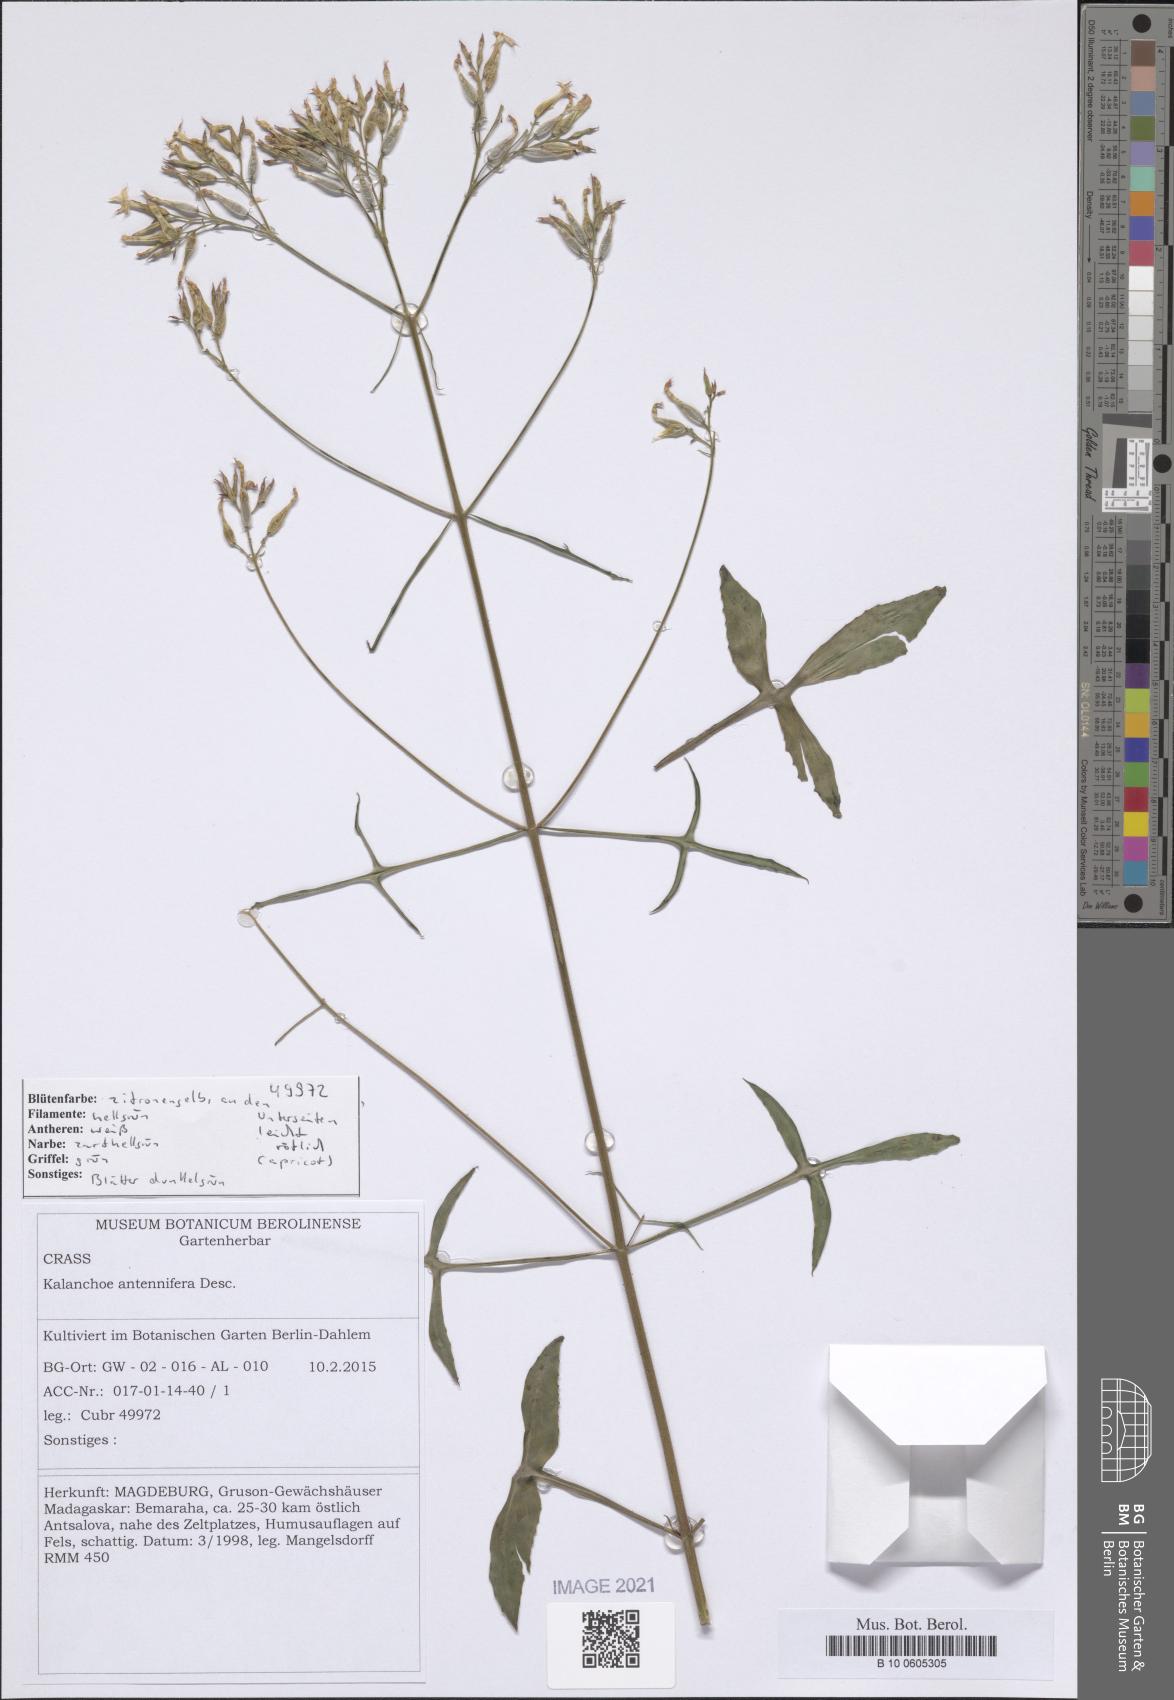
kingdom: Plantae
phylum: Tracheophyta
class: Magnoliopsida
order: Saxifragales
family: Crassulaceae
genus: Kalanchoe
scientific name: Kalanchoe antennifera
